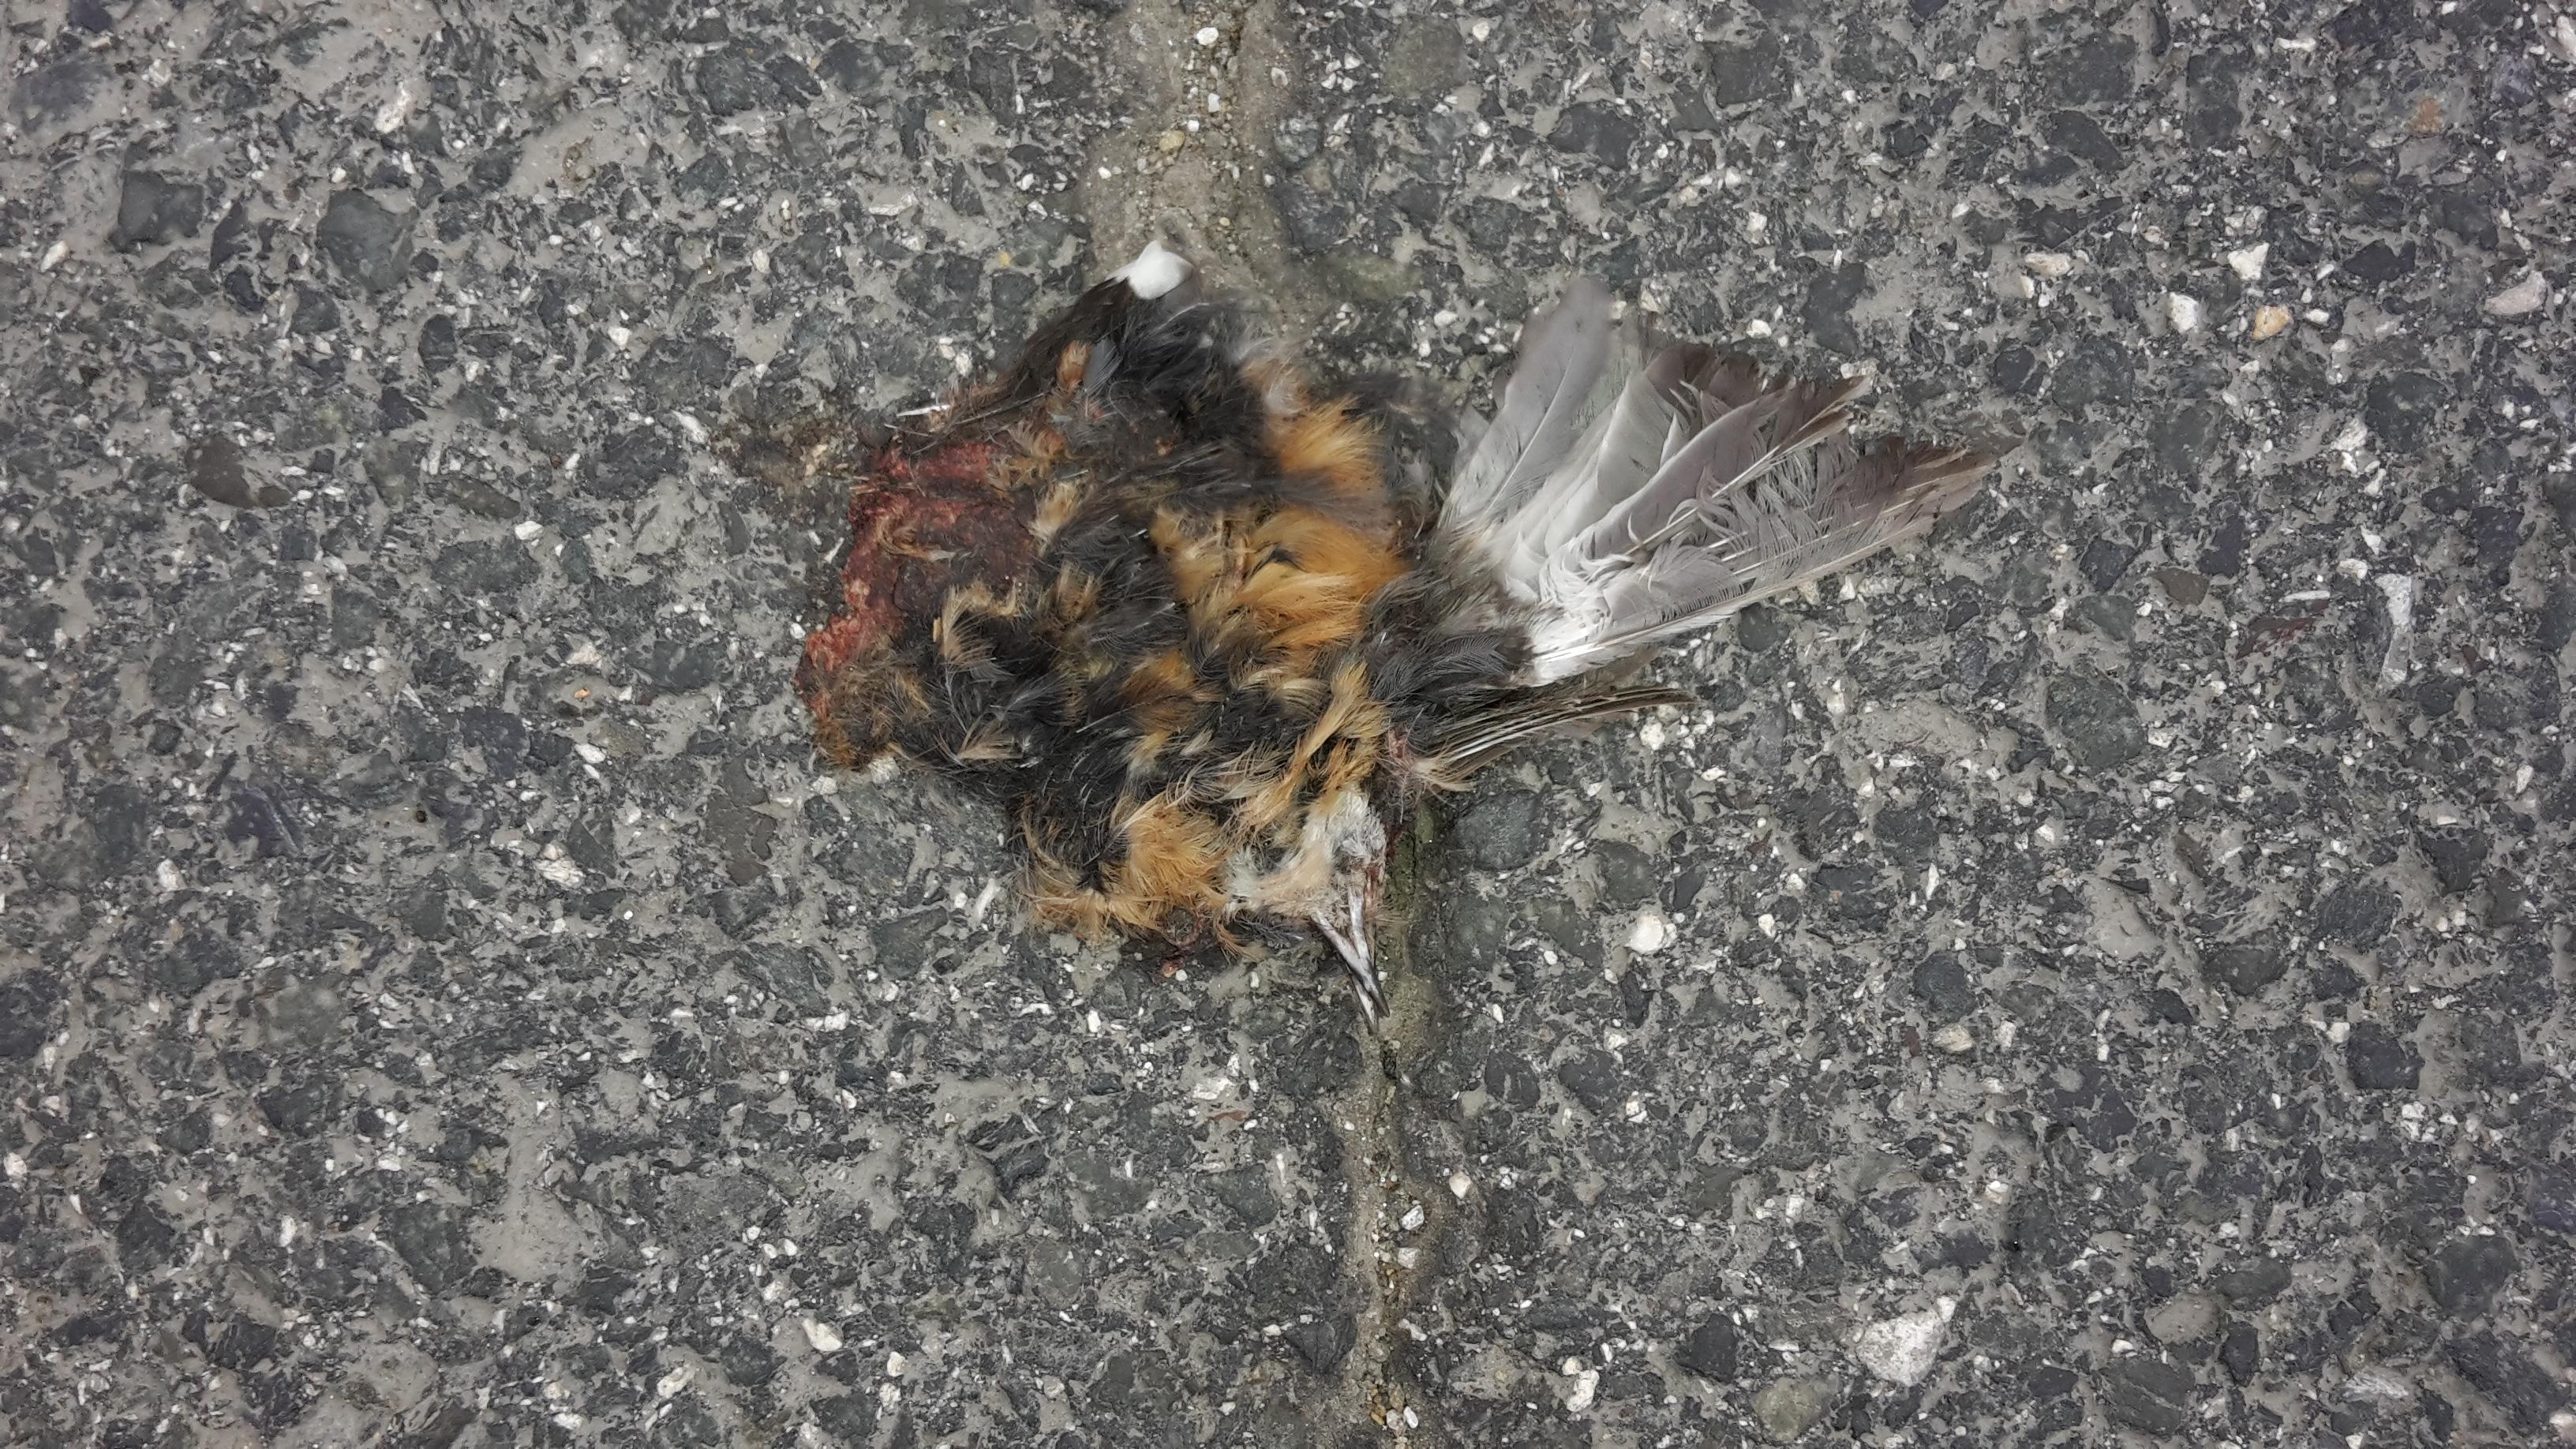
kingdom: Animalia
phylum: Chordata
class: Aves
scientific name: Aves
